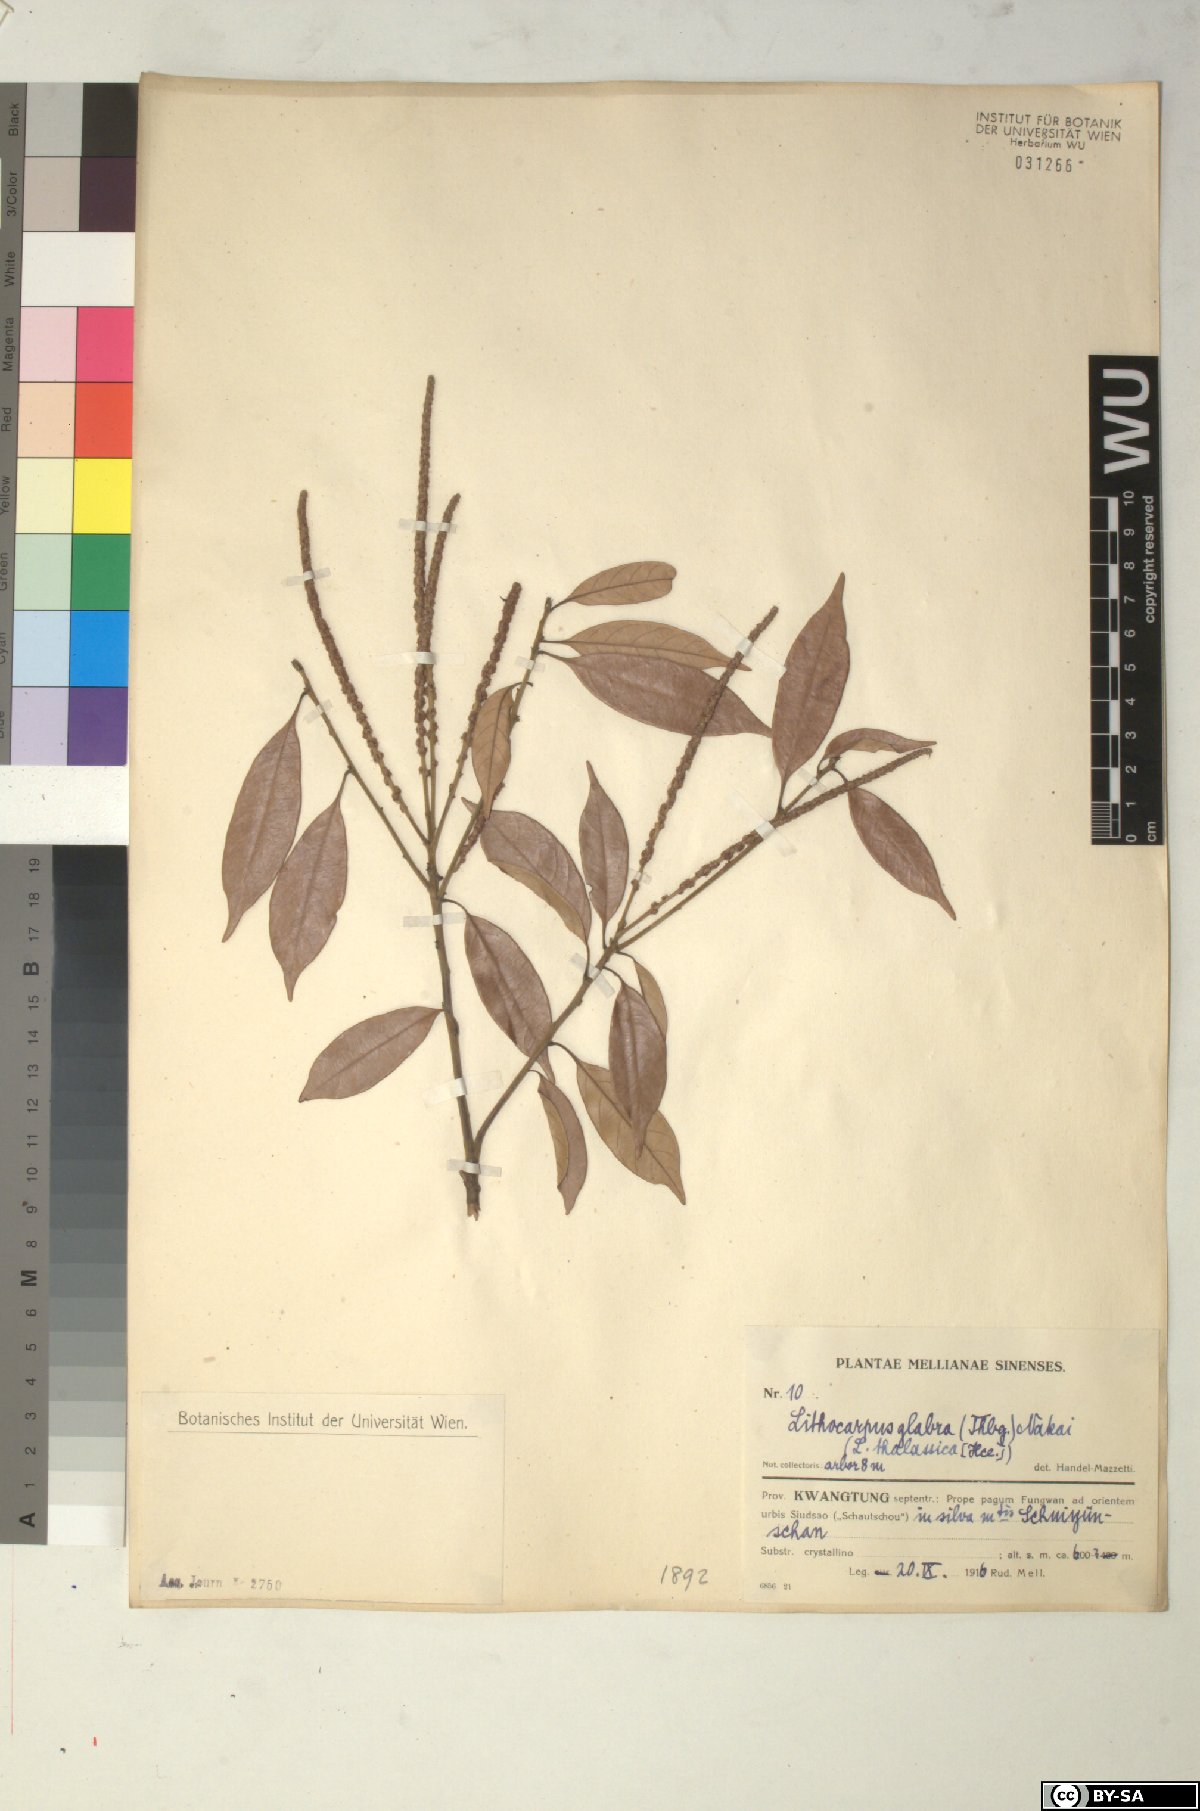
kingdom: Plantae
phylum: Tracheophyta
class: Magnoliopsida
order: Fagales
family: Fagaceae
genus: Lithocarpus
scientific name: Lithocarpus glaber
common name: Japanese-oak
